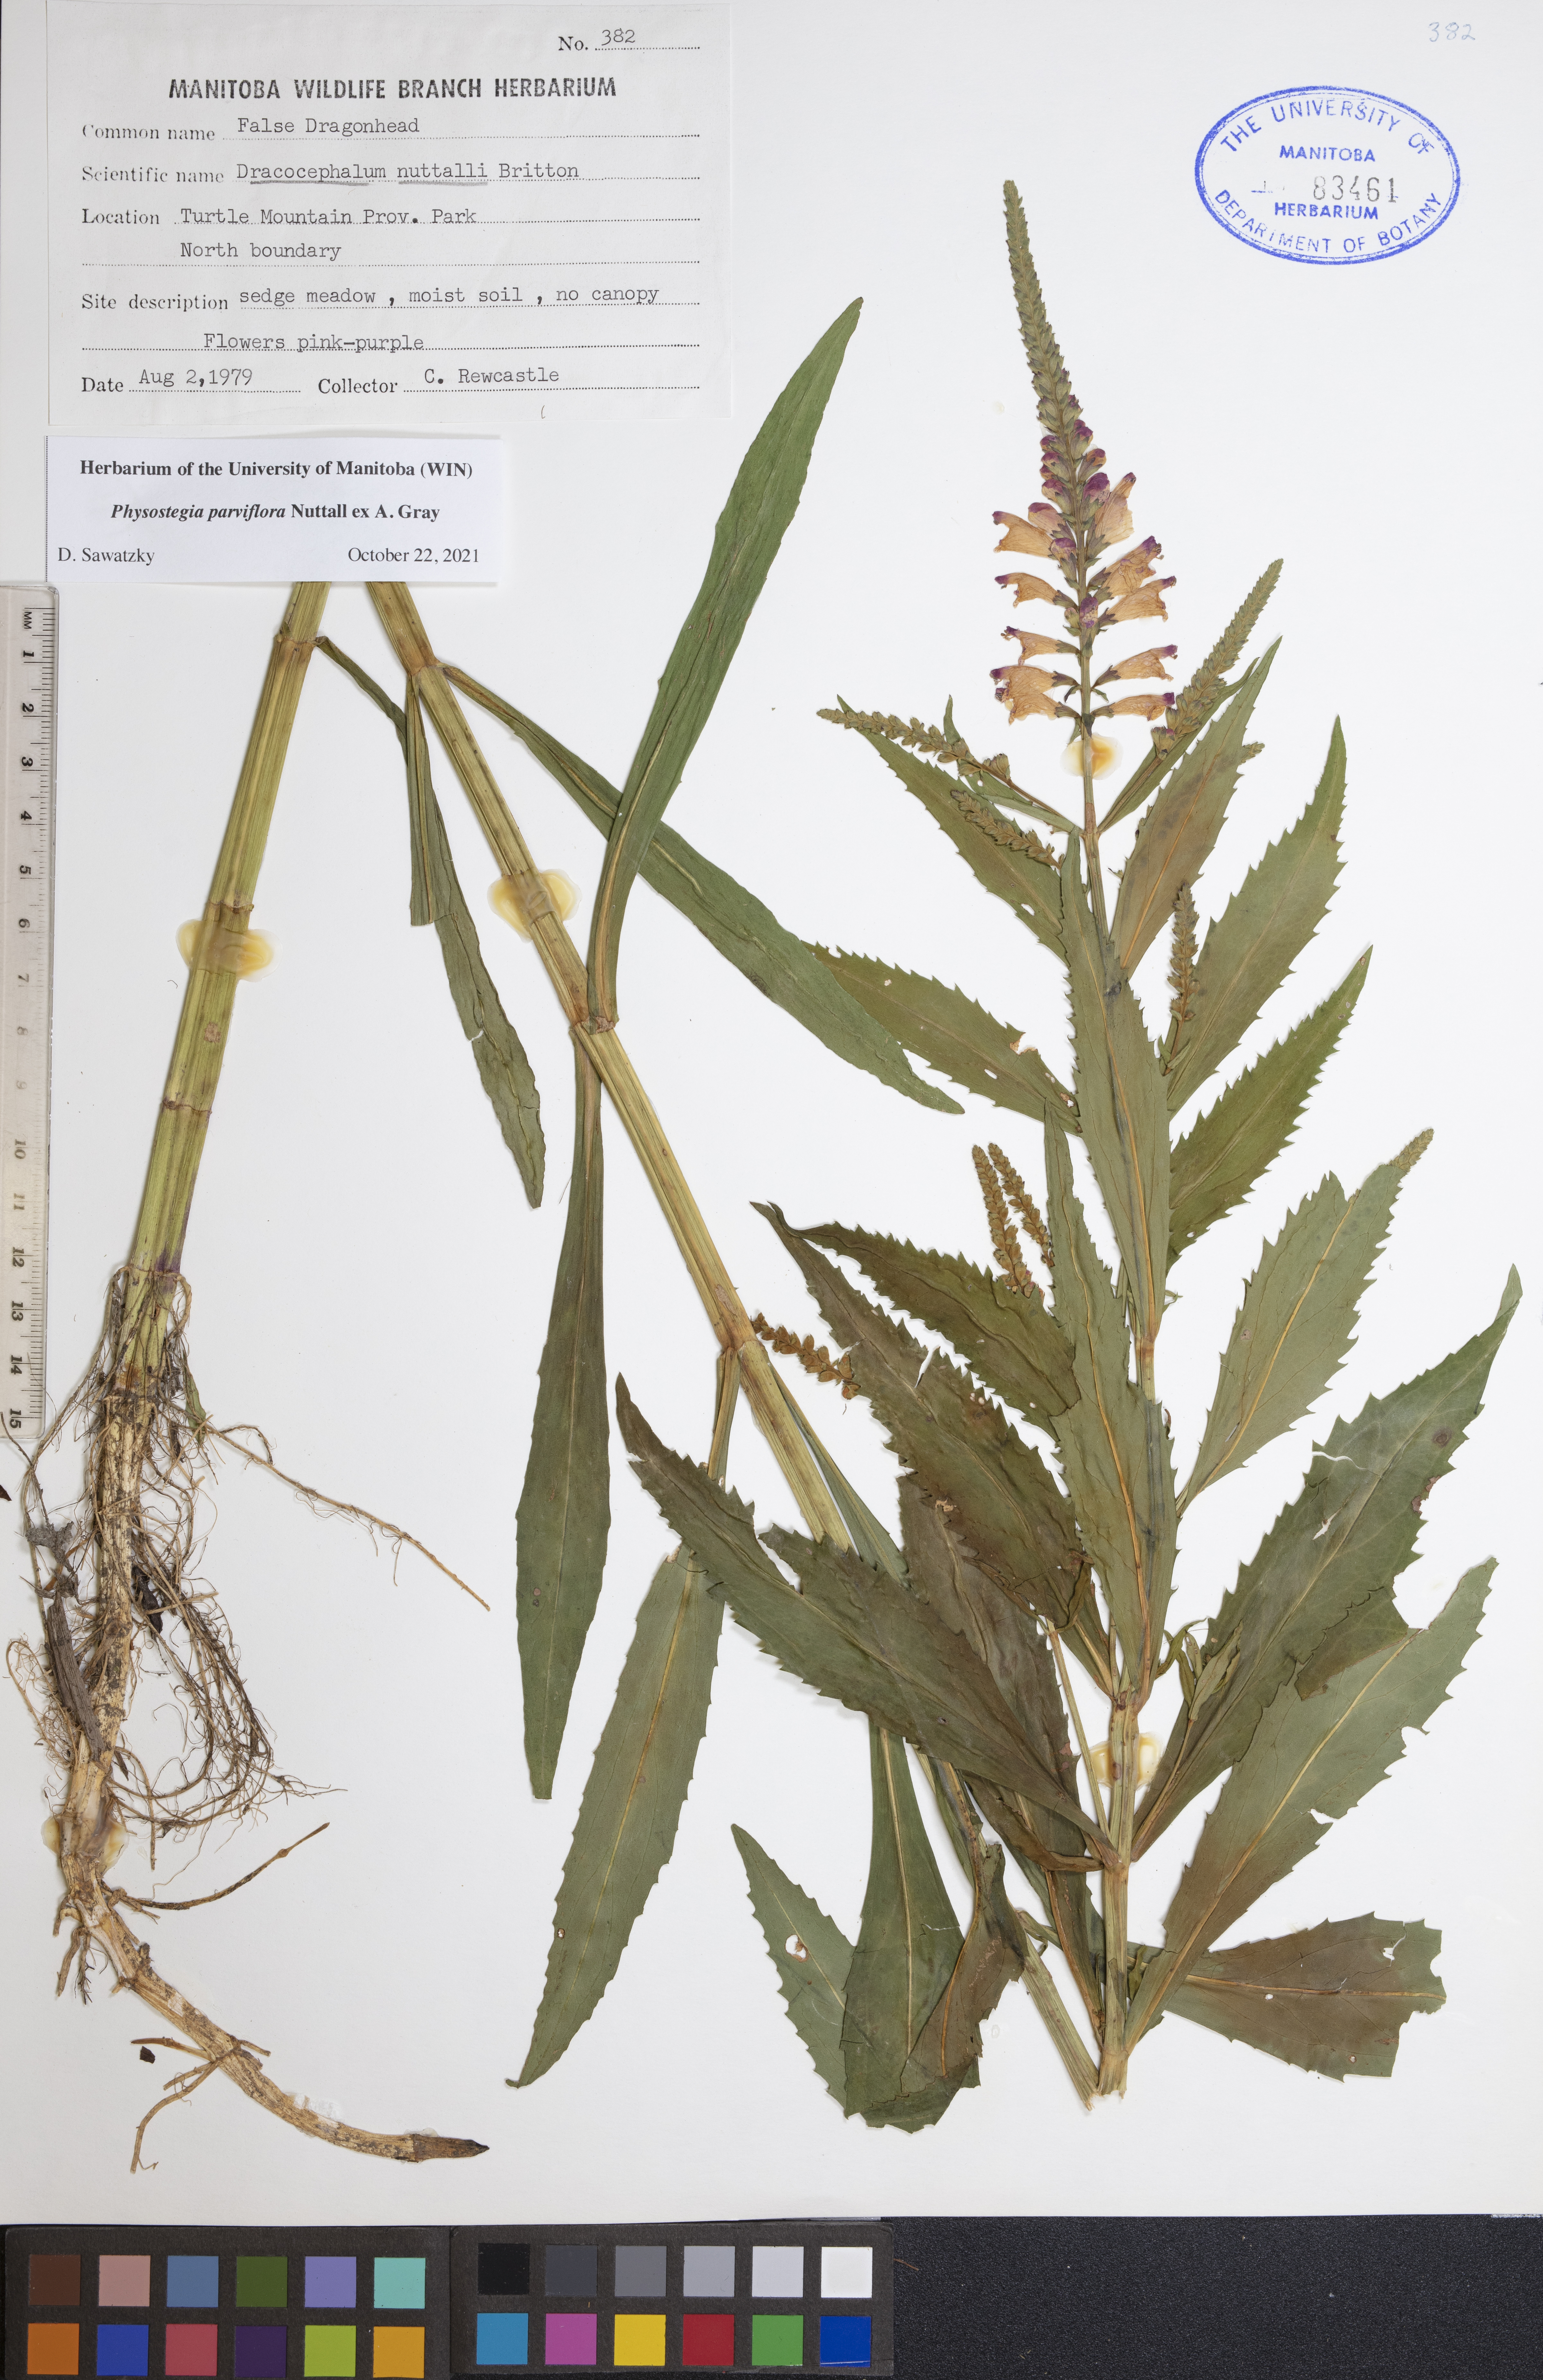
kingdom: Plantae
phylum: Tracheophyta
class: Magnoliopsida
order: Lamiales
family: Lamiaceae
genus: Physostegia
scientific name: Physostegia parviflora
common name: American dragonhead
